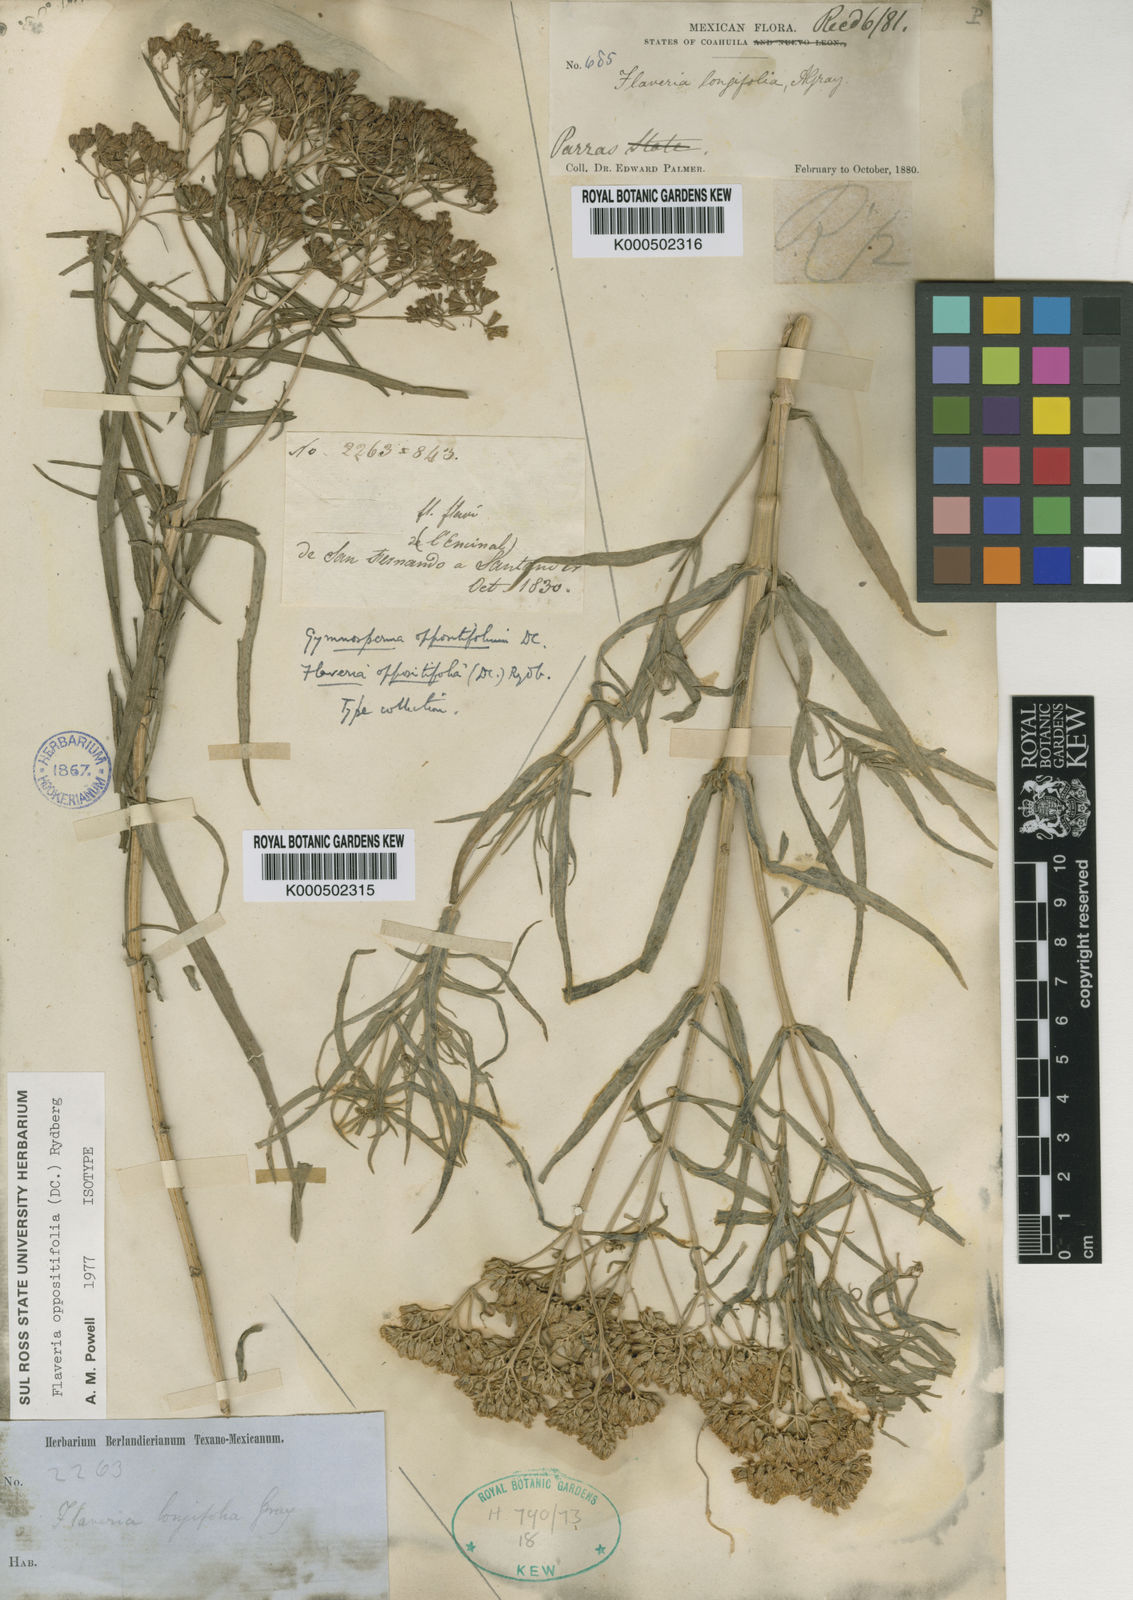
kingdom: Plantae
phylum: Tracheophyta
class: Magnoliopsida
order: Asterales
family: Asteraceae
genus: Flaveria
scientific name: Flaveria oppositifolia
